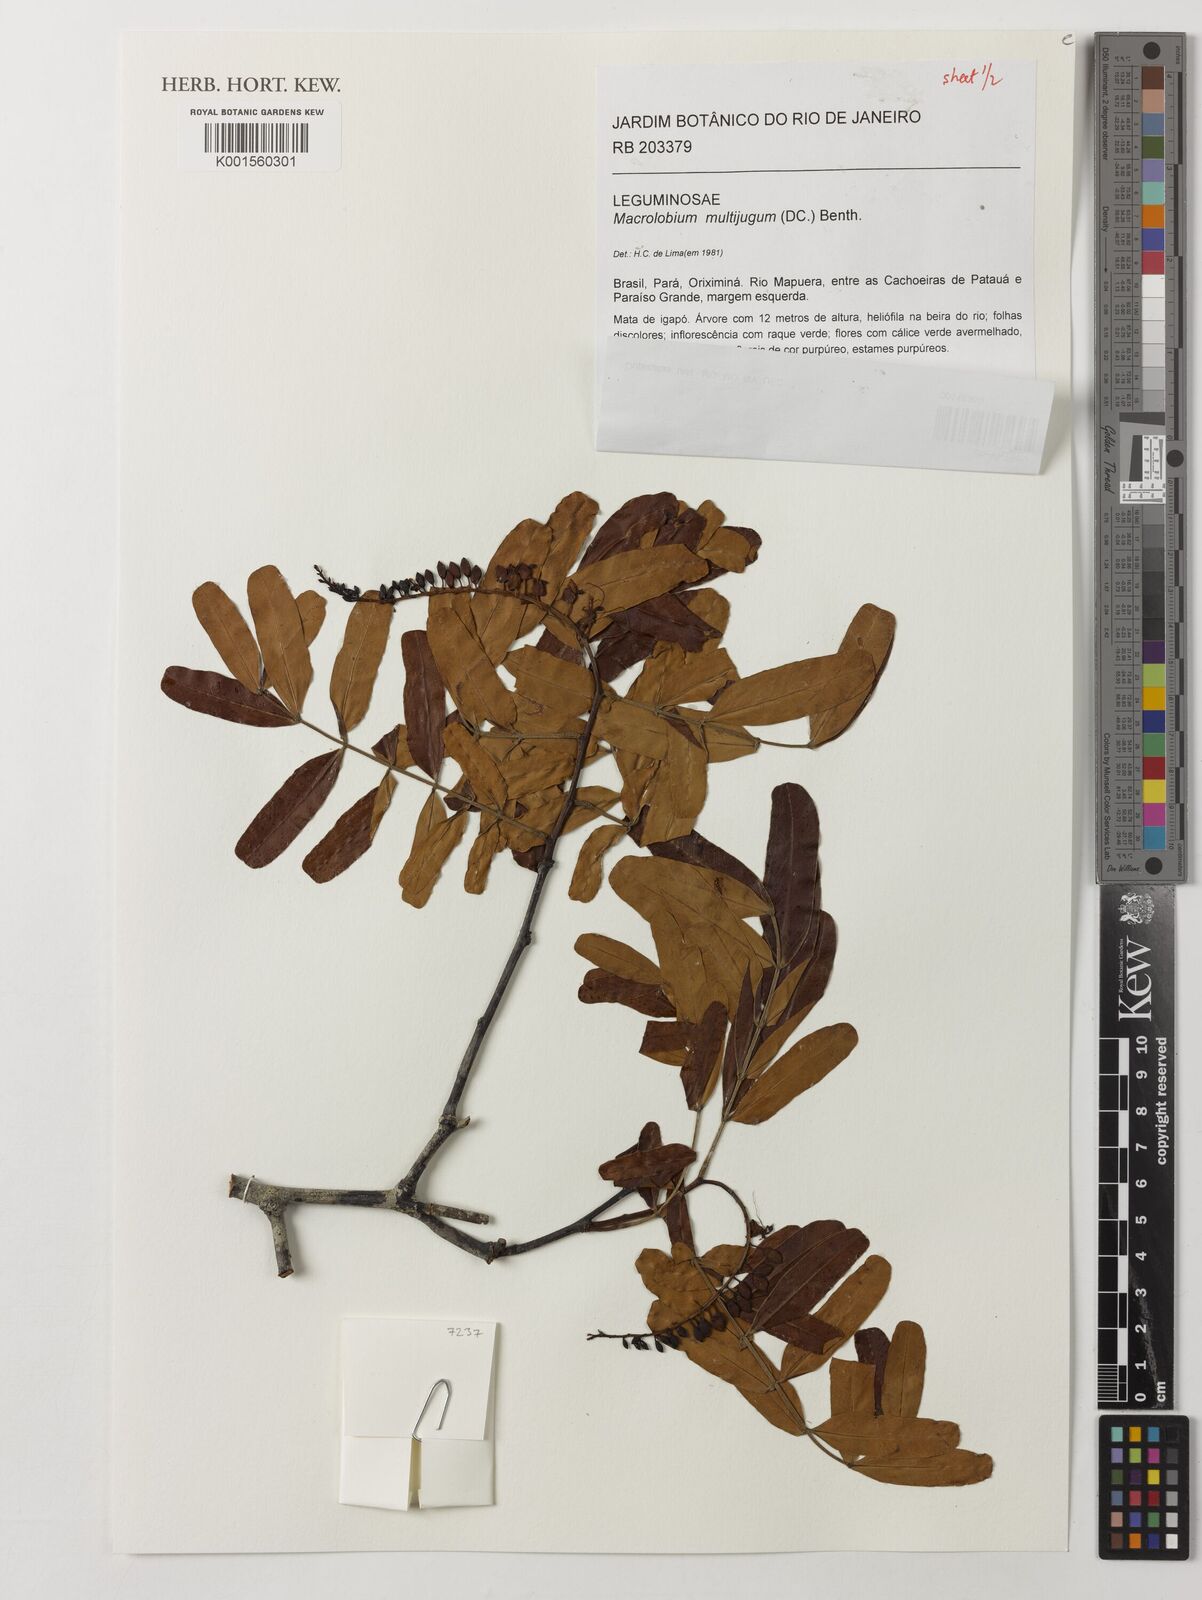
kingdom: Plantae
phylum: Tracheophyta
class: Magnoliopsida
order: Fabales
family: Fabaceae
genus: Macrolobium
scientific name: Macrolobium multijugum
